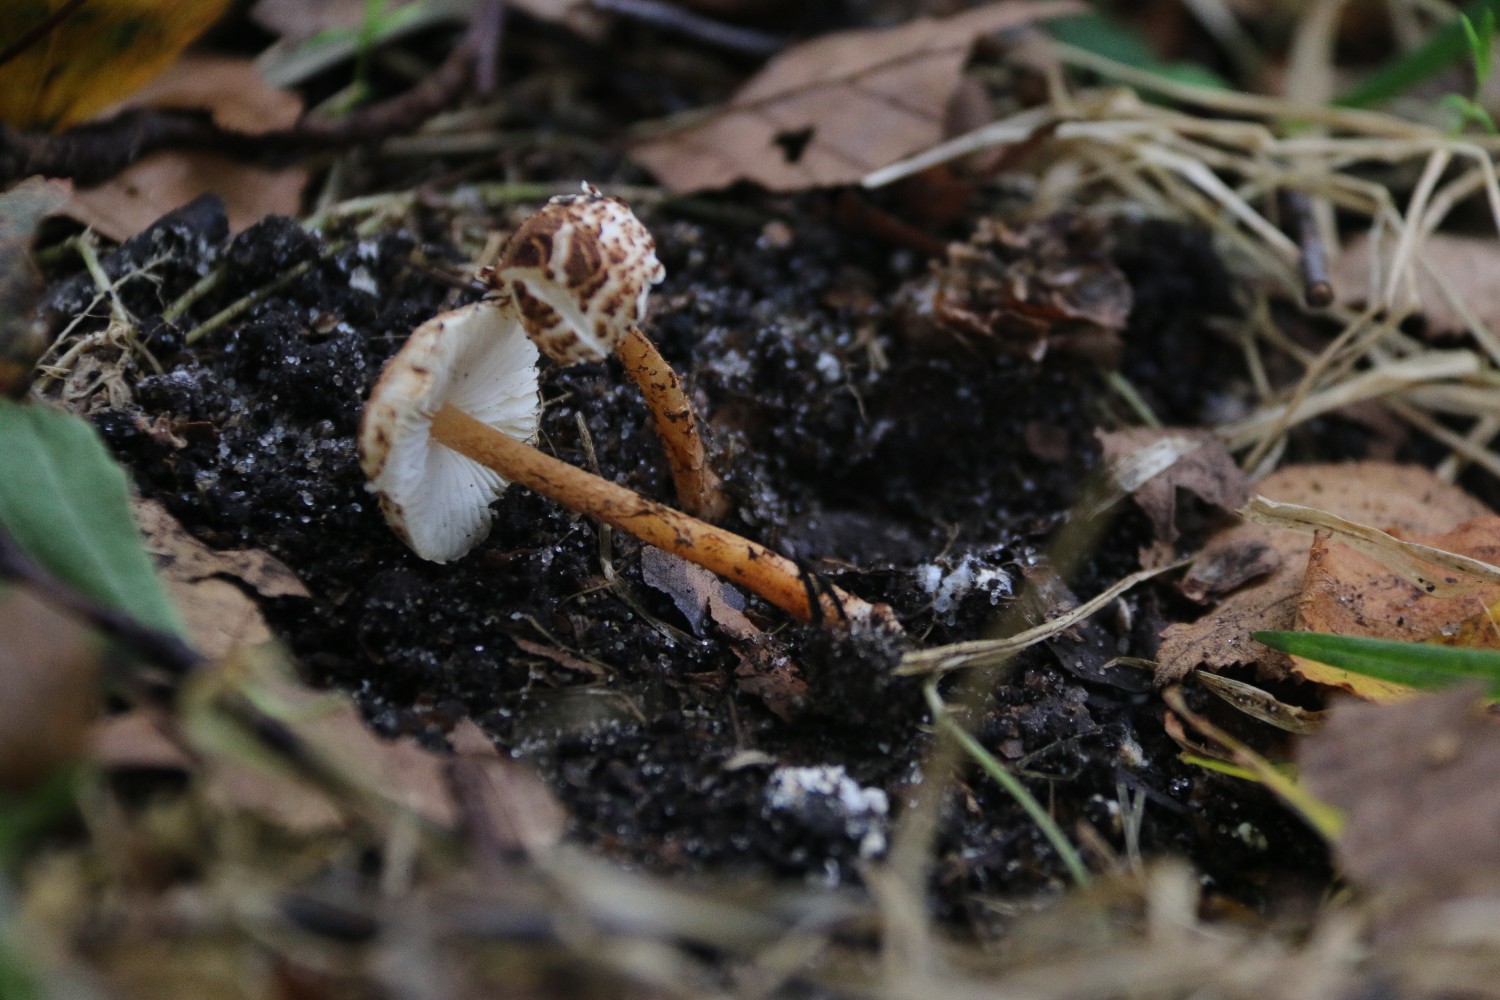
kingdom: Fungi
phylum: Basidiomycota
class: Agaricomycetes
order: Agaricales
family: Agaricaceae
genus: Lepiota
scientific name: Lepiota castanea
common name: kastaniebrun parasolhat
